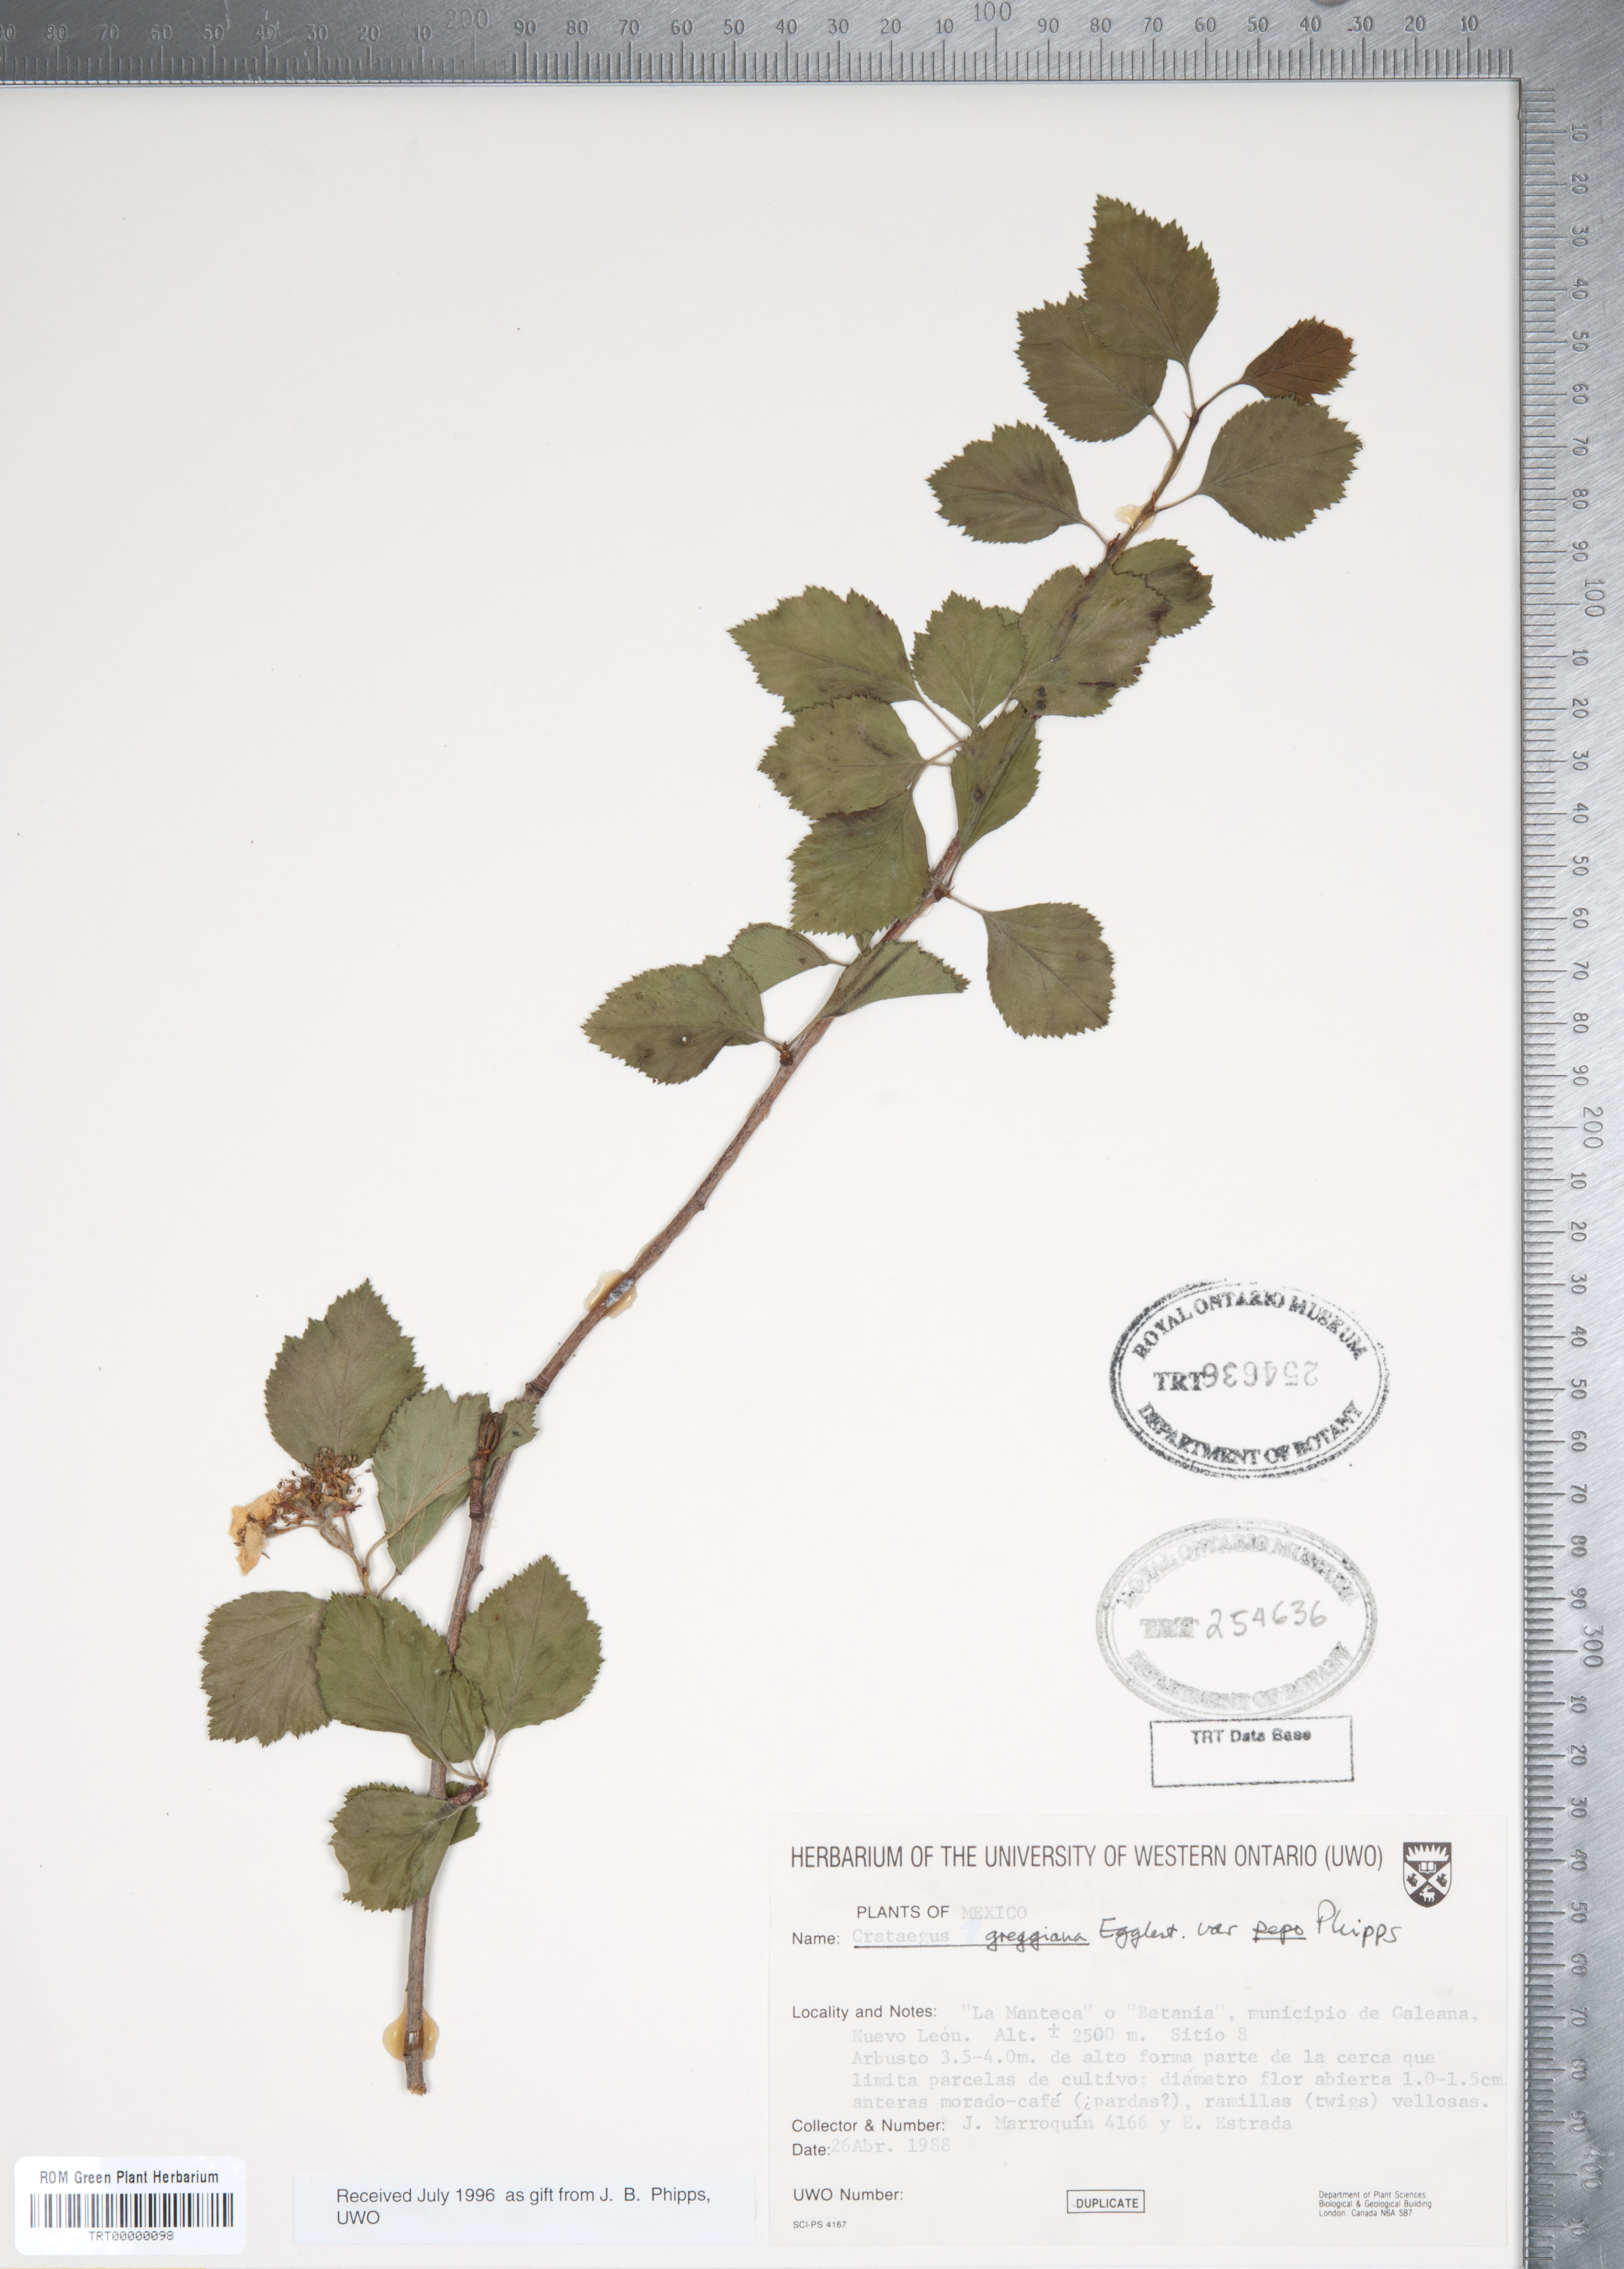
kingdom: Plantae
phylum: Tracheophyta
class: Magnoliopsida
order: Rosales
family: Rosaceae
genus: Crataegus
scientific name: Crataegus greggiana
